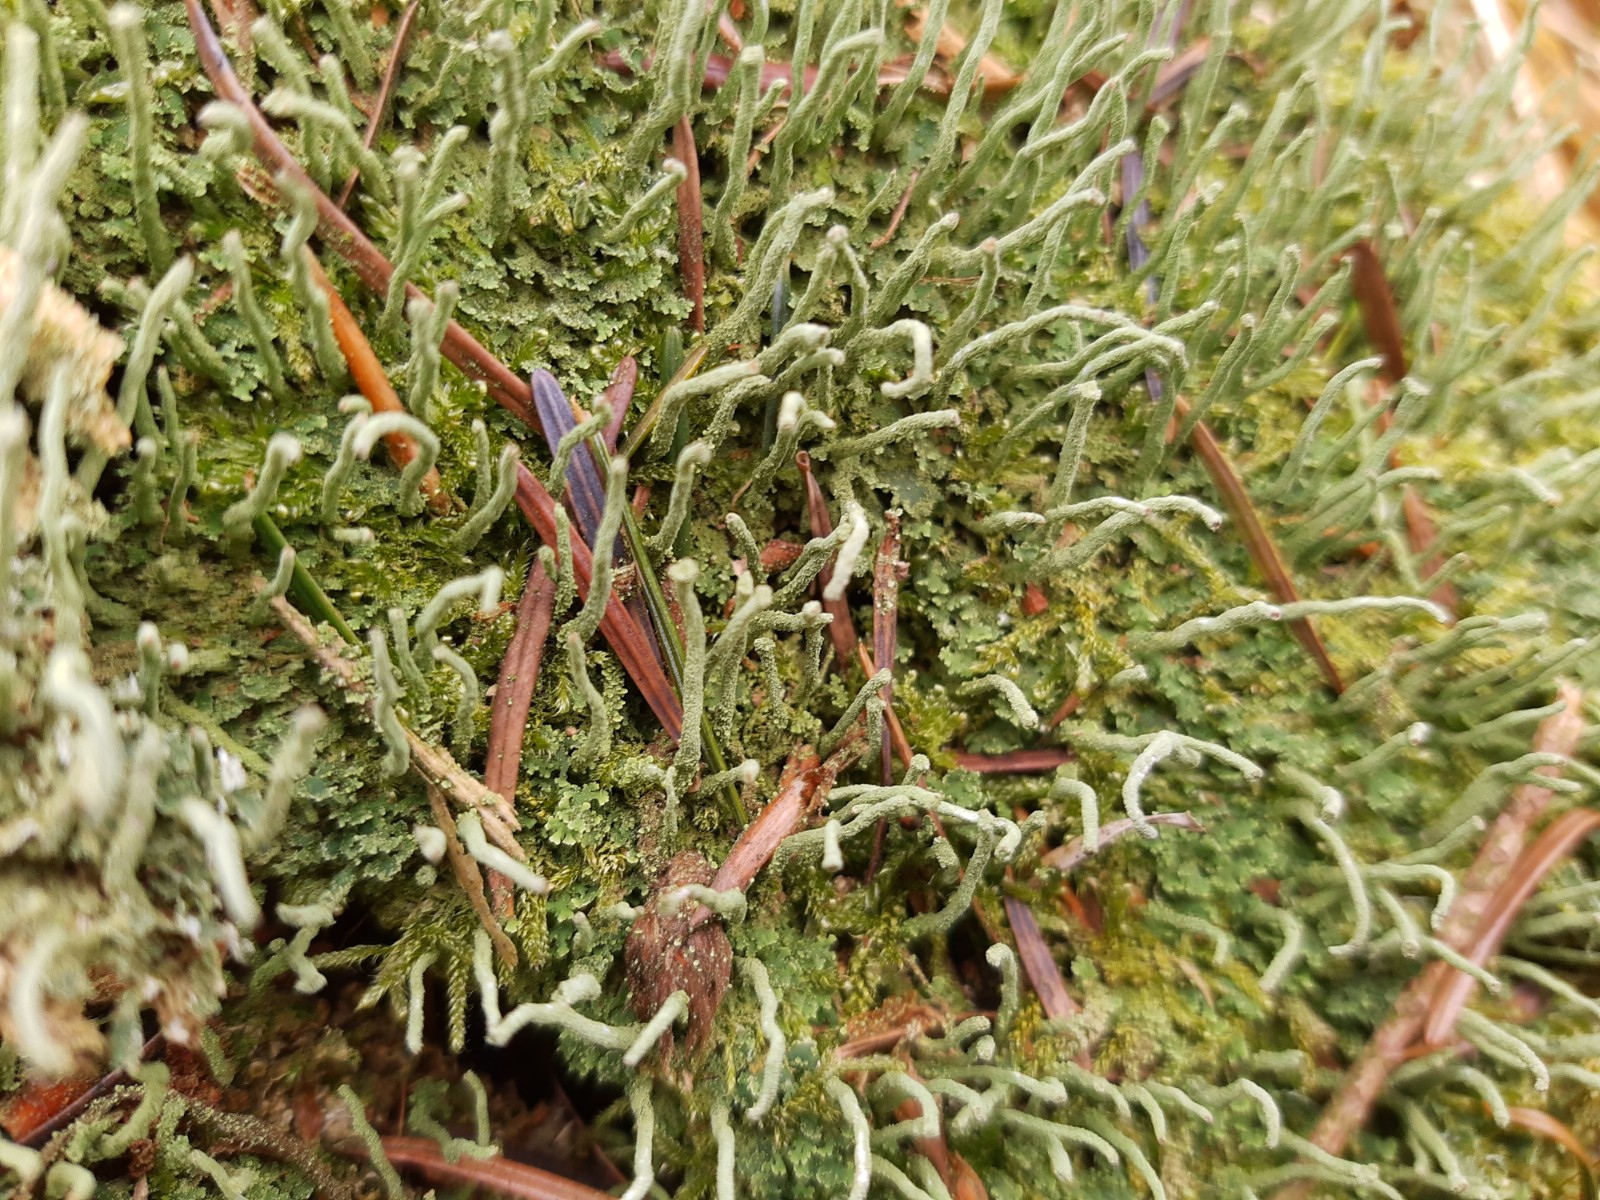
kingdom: Fungi
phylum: Ascomycota
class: Lecanoromycetes
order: Lecanorales
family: Cladoniaceae
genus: Cladonia
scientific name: Cladonia ochrochlora
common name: stød-bægerlav
